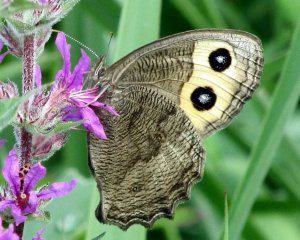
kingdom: Animalia
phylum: Arthropoda
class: Insecta
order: Lepidoptera
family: Nymphalidae
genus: Cercyonis
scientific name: Cercyonis pegala
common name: Common Wood-Nymph
